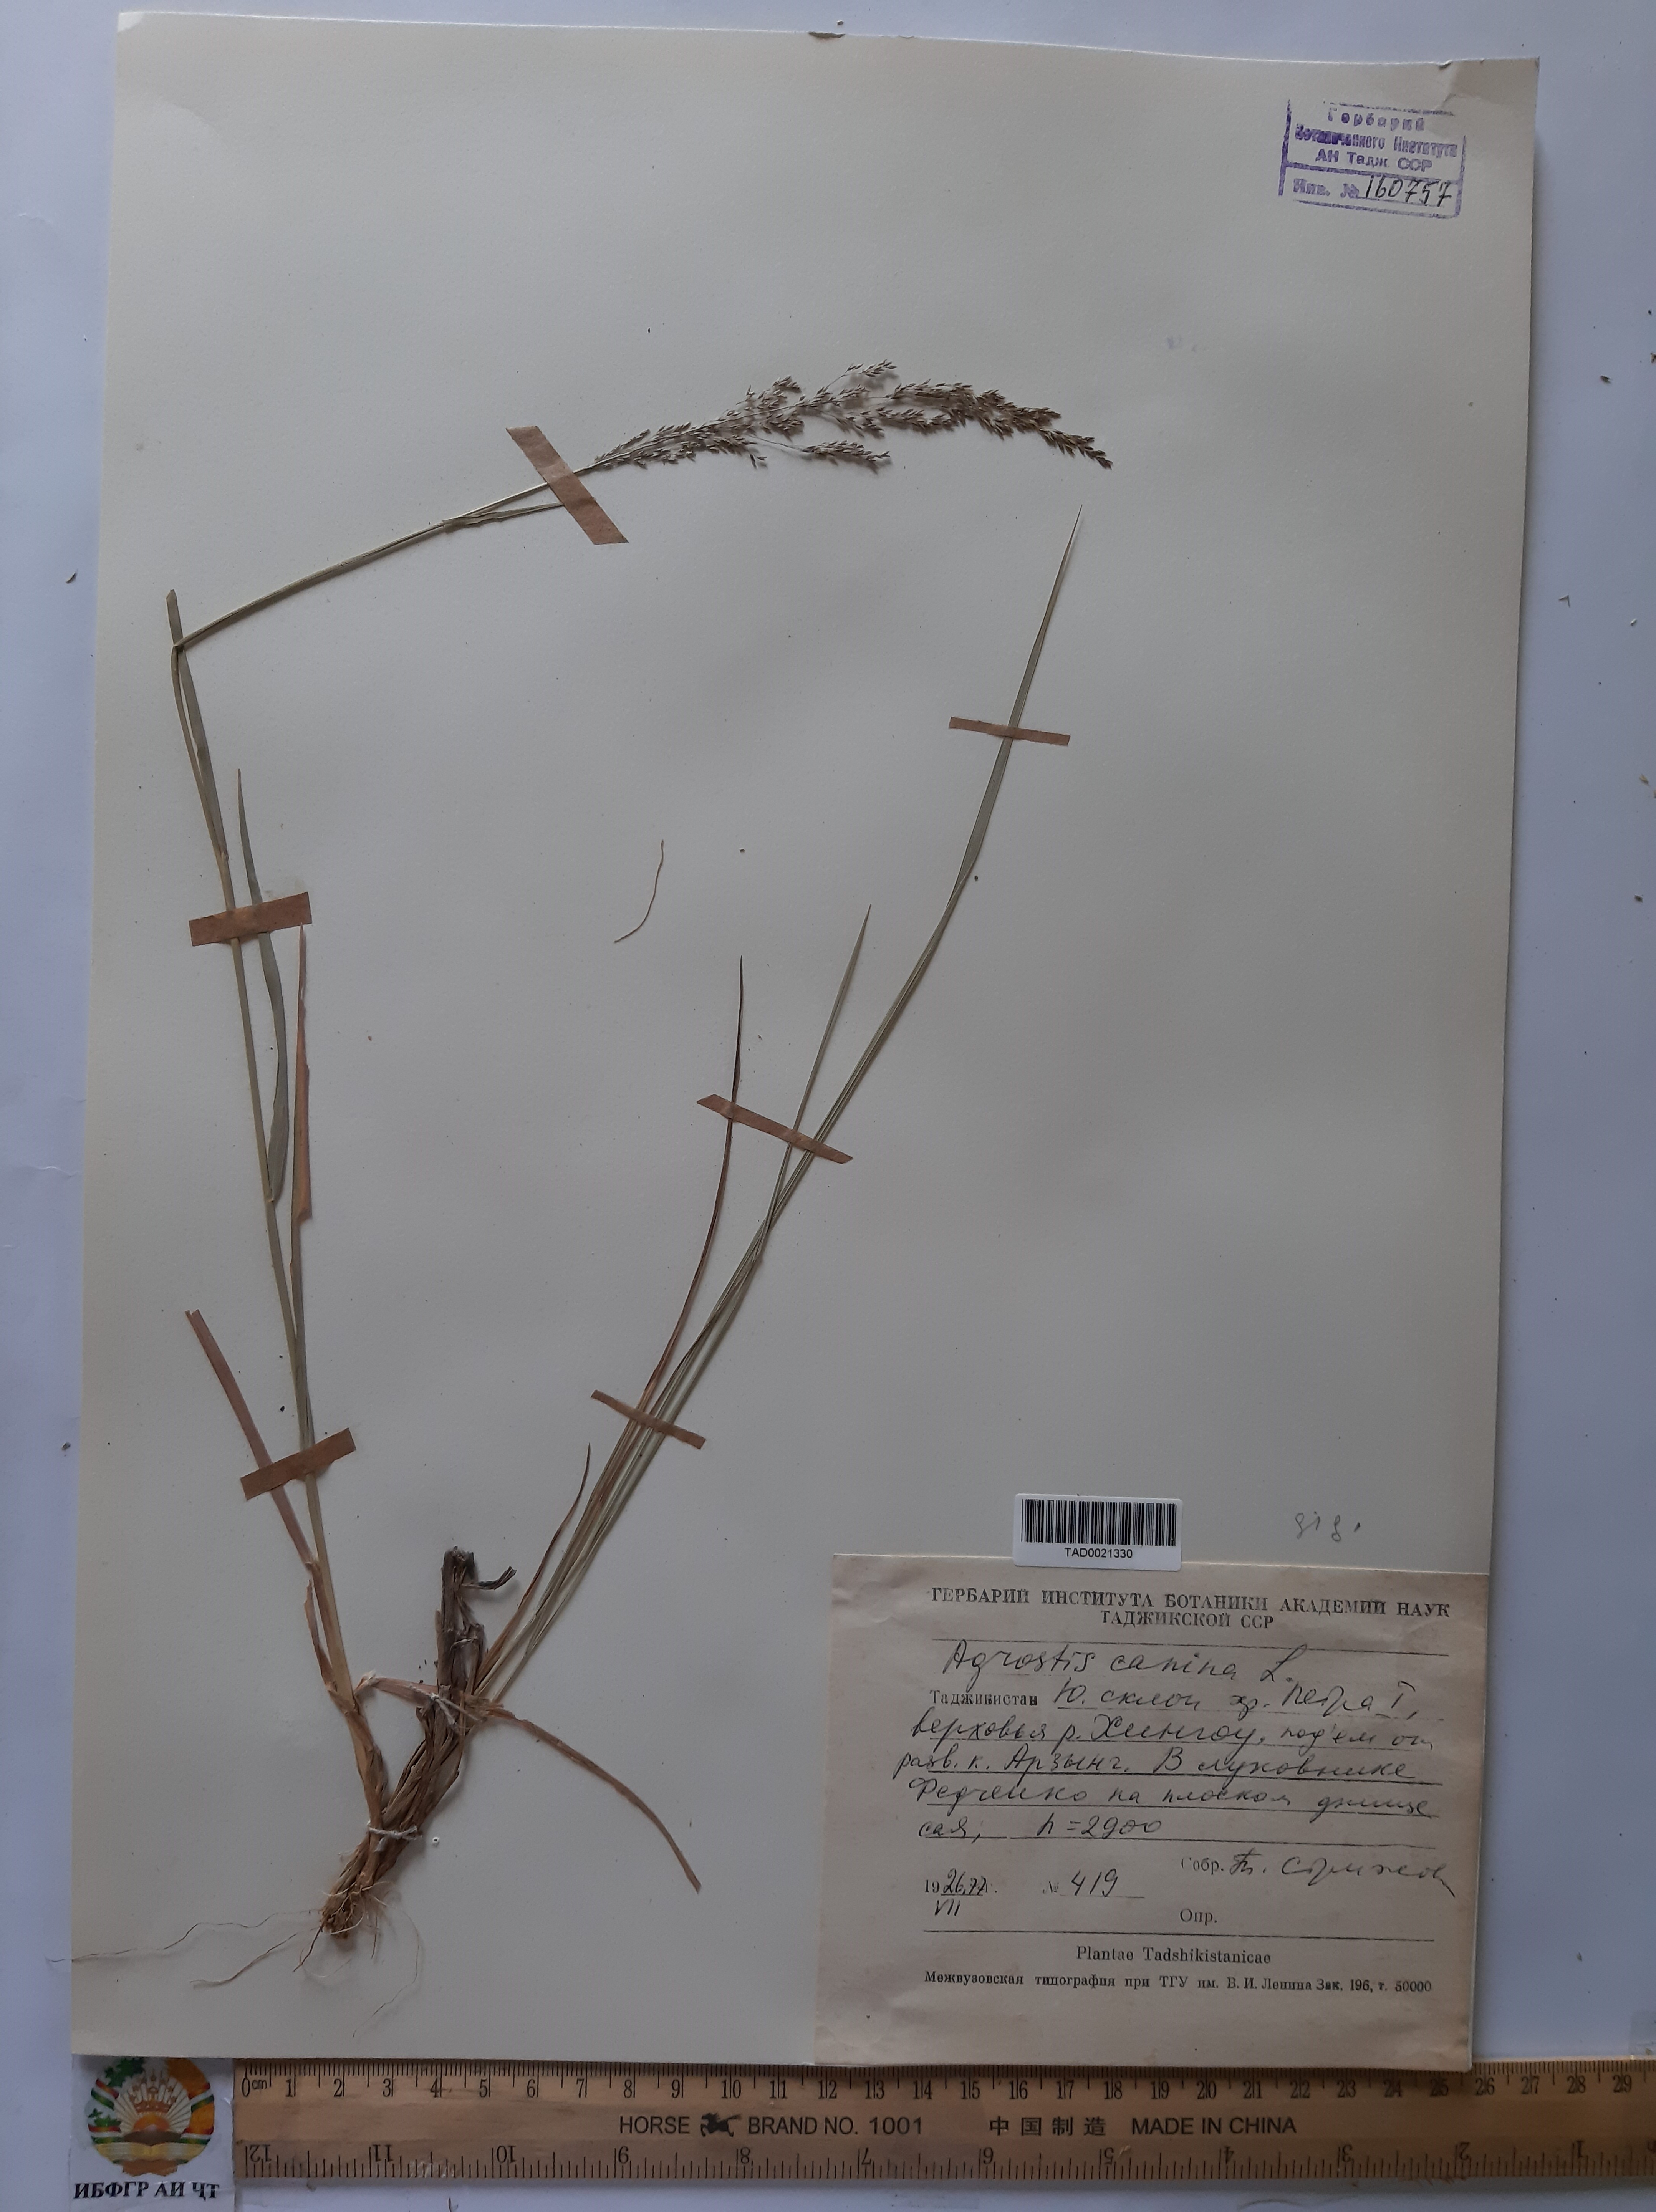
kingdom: Plantae
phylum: Tracheophyta
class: Liliopsida
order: Poales
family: Poaceae
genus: Poa
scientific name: Poa nemoralis
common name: Wood bluegrass
